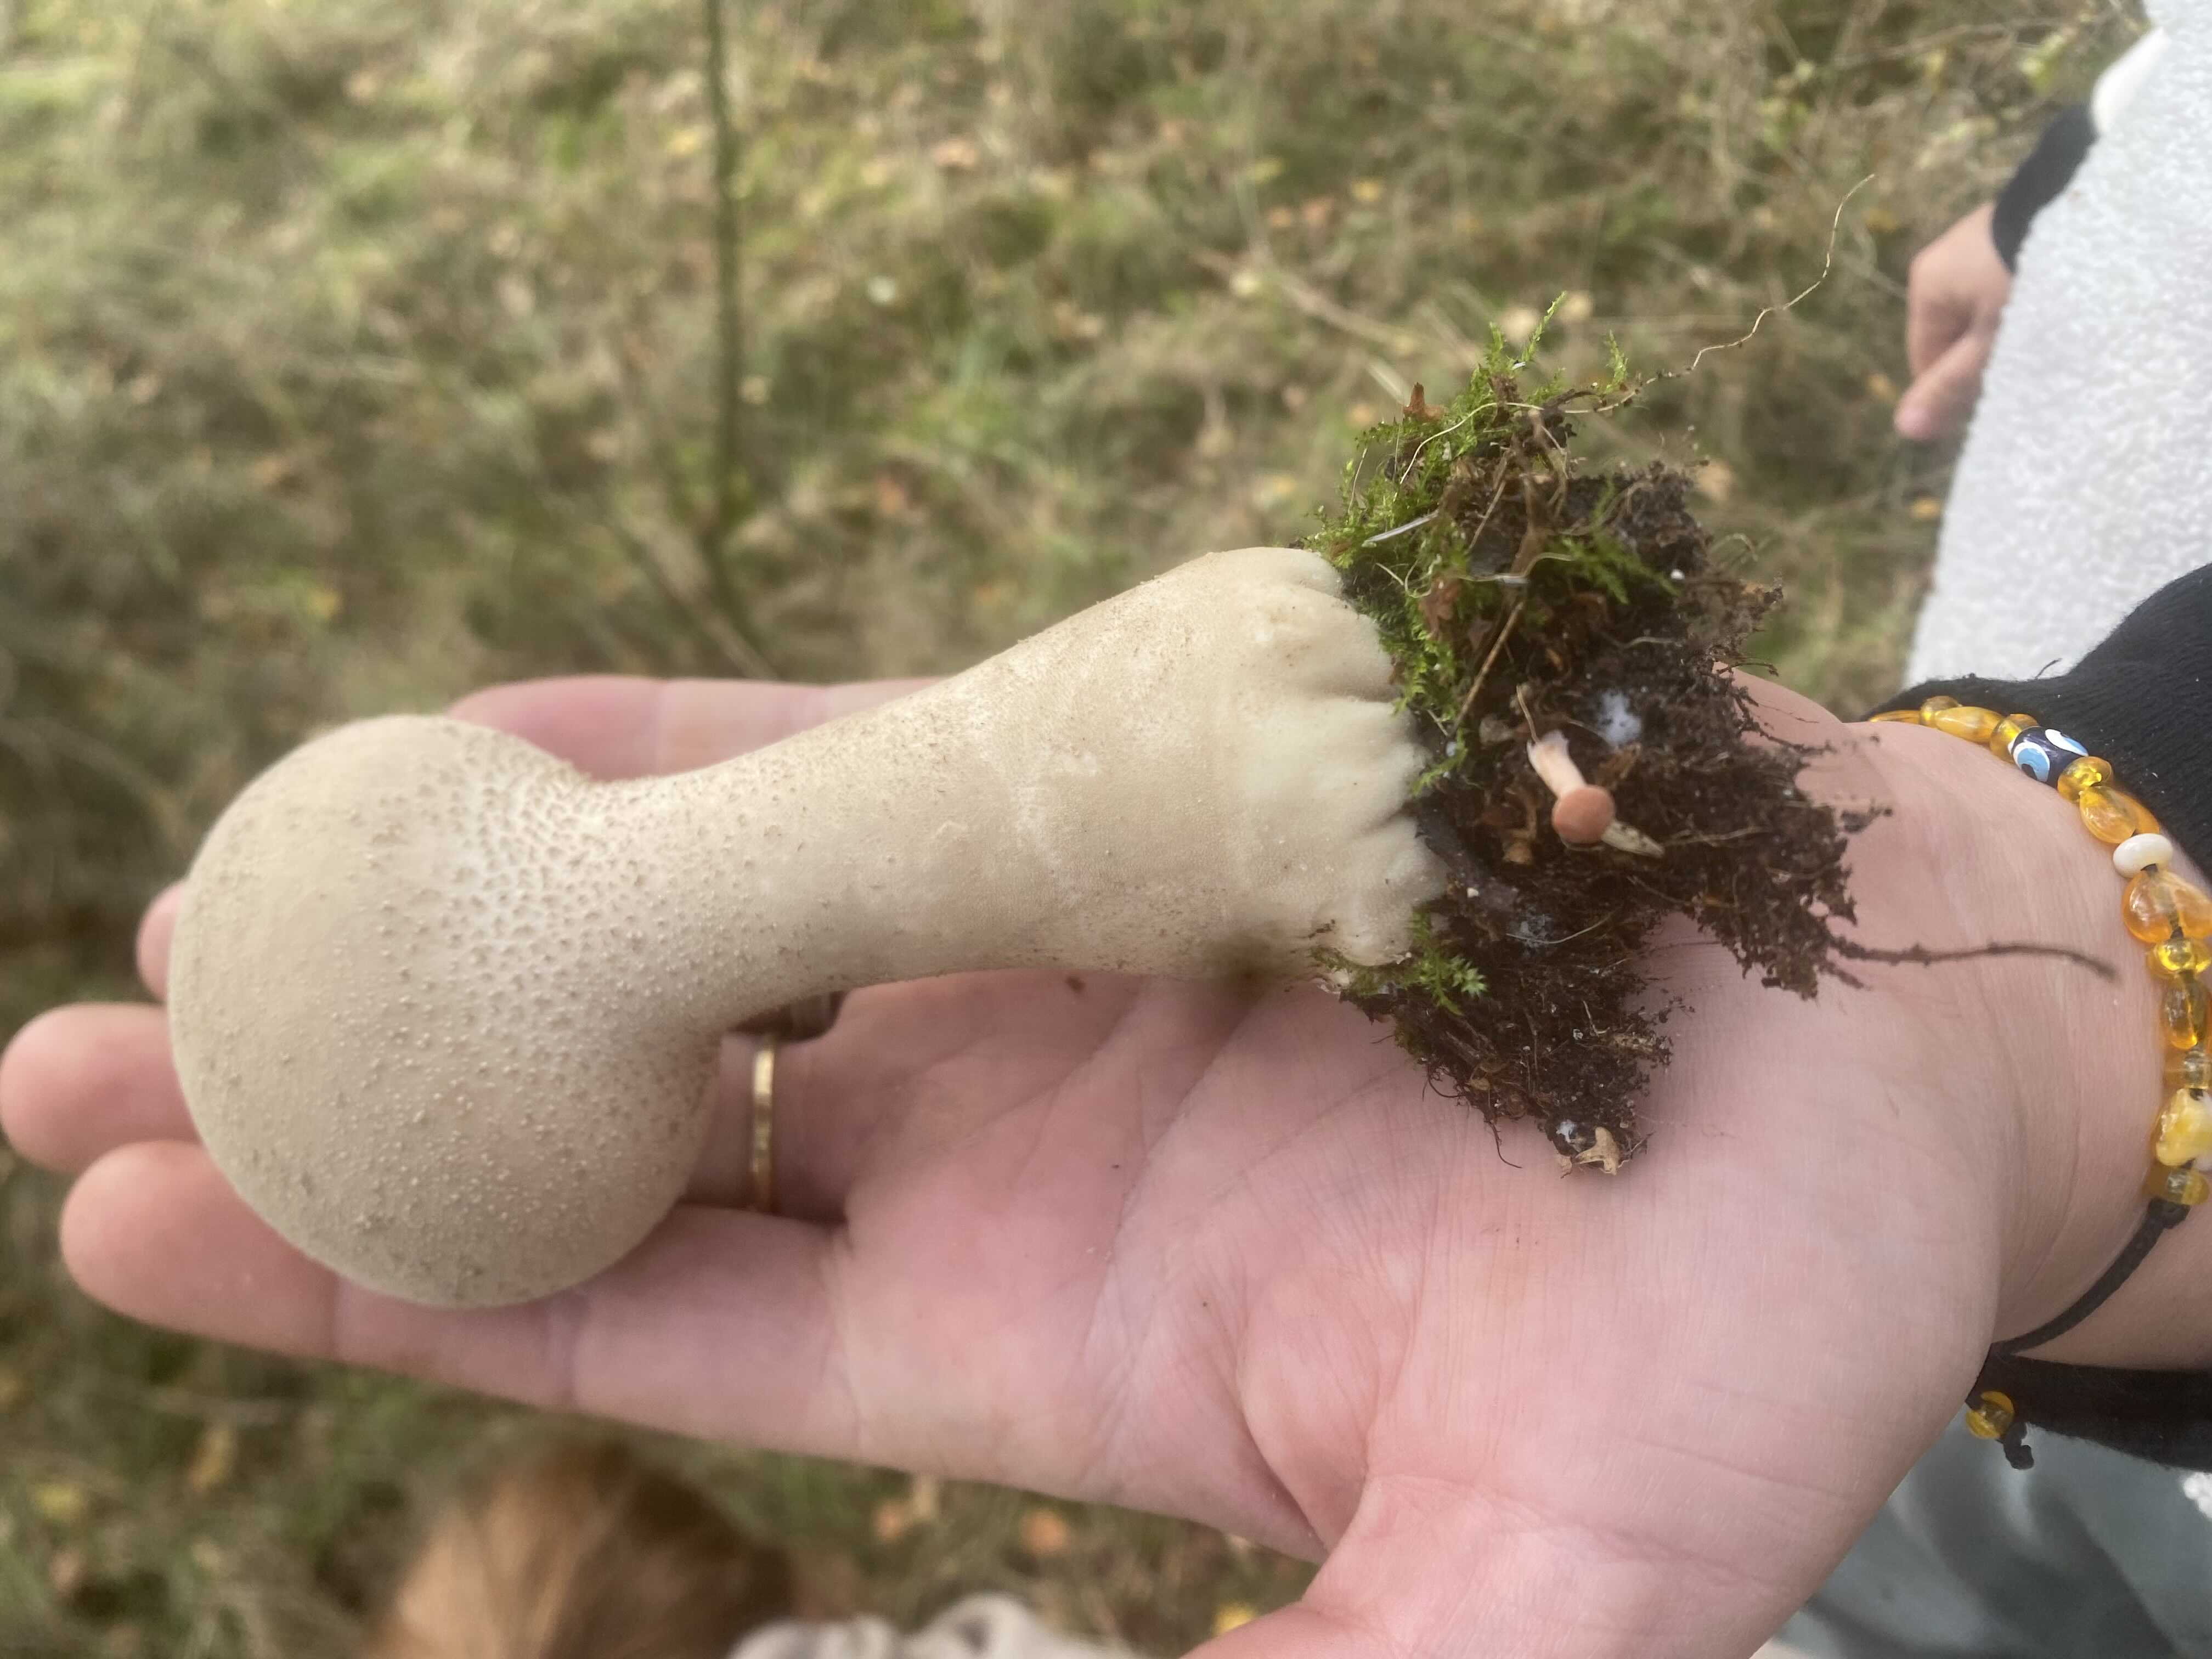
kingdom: Fungi
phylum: Basidiomycota
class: Agaricomycetes
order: Agaricales
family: Lycoperdaceae
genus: Lycoperdon
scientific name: Lycoperdon excipuliforme
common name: højstokket støvbold
